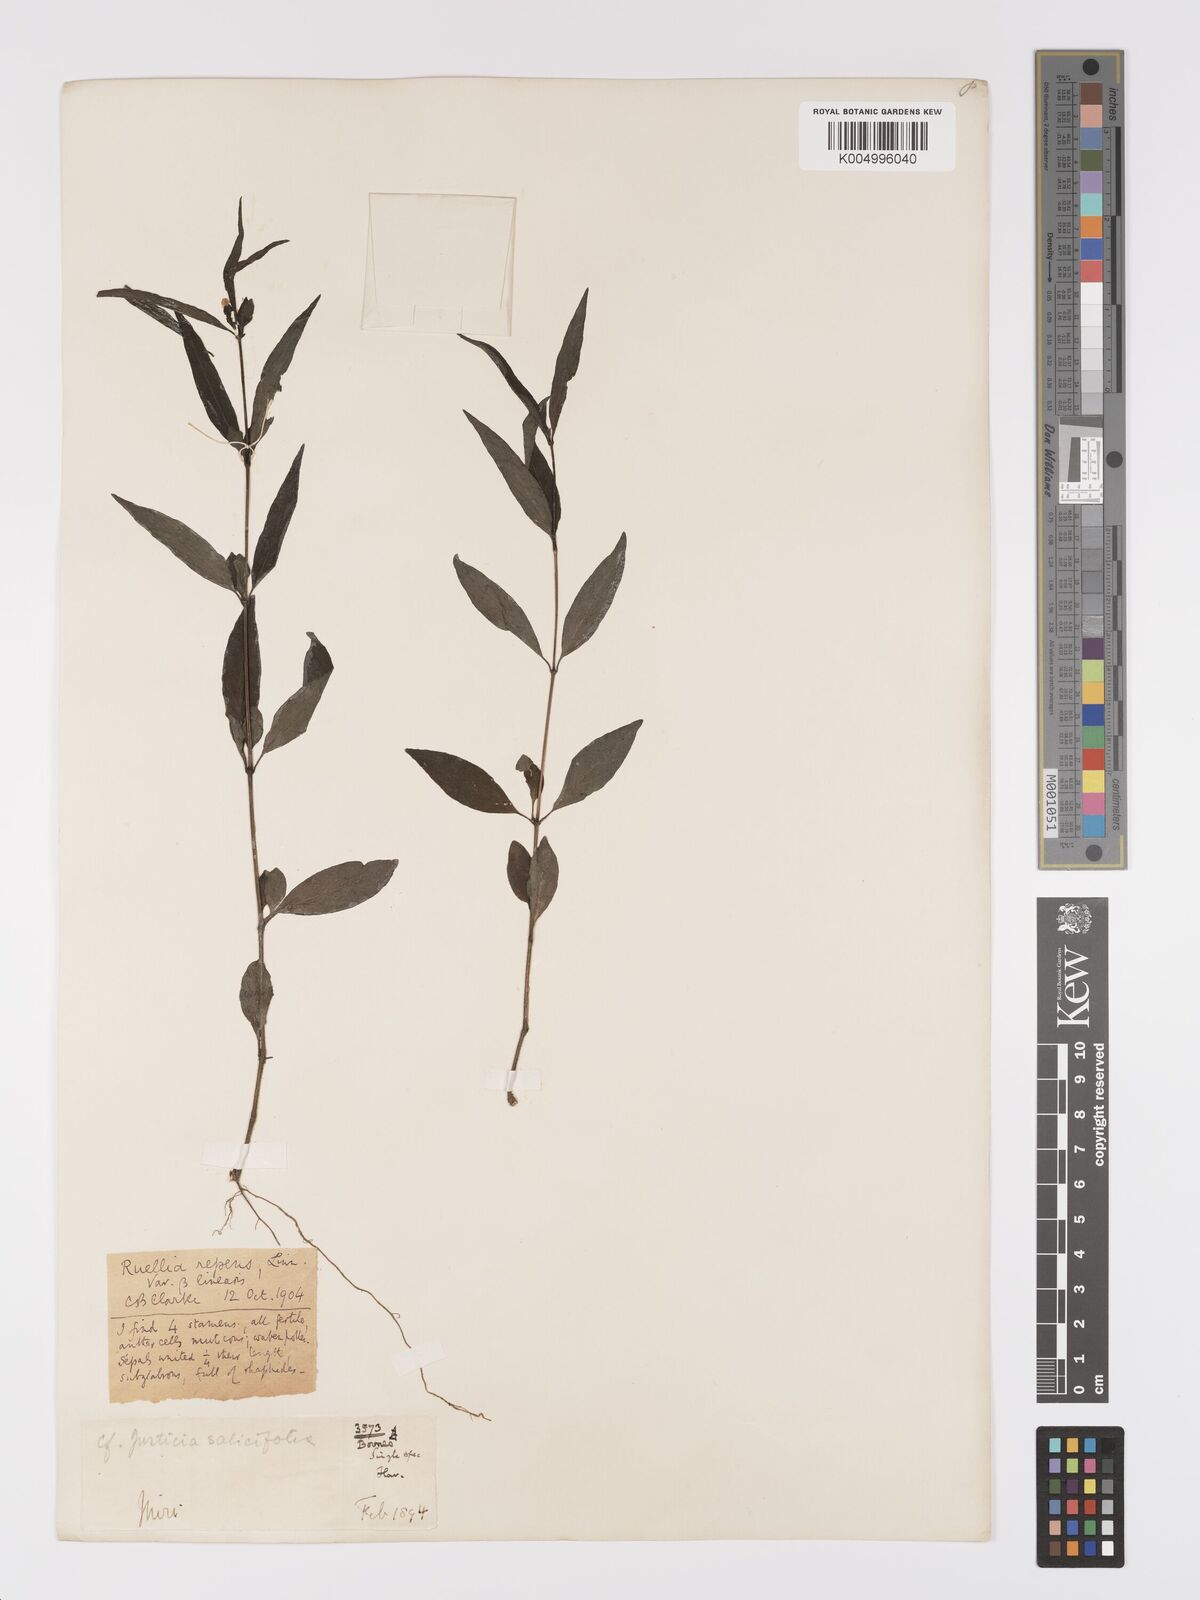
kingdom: Plantae
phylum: Tracheophyta
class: Magnoliopsida
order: Lamiales
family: Acanthaceae
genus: Ruellia
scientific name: Ruellia
